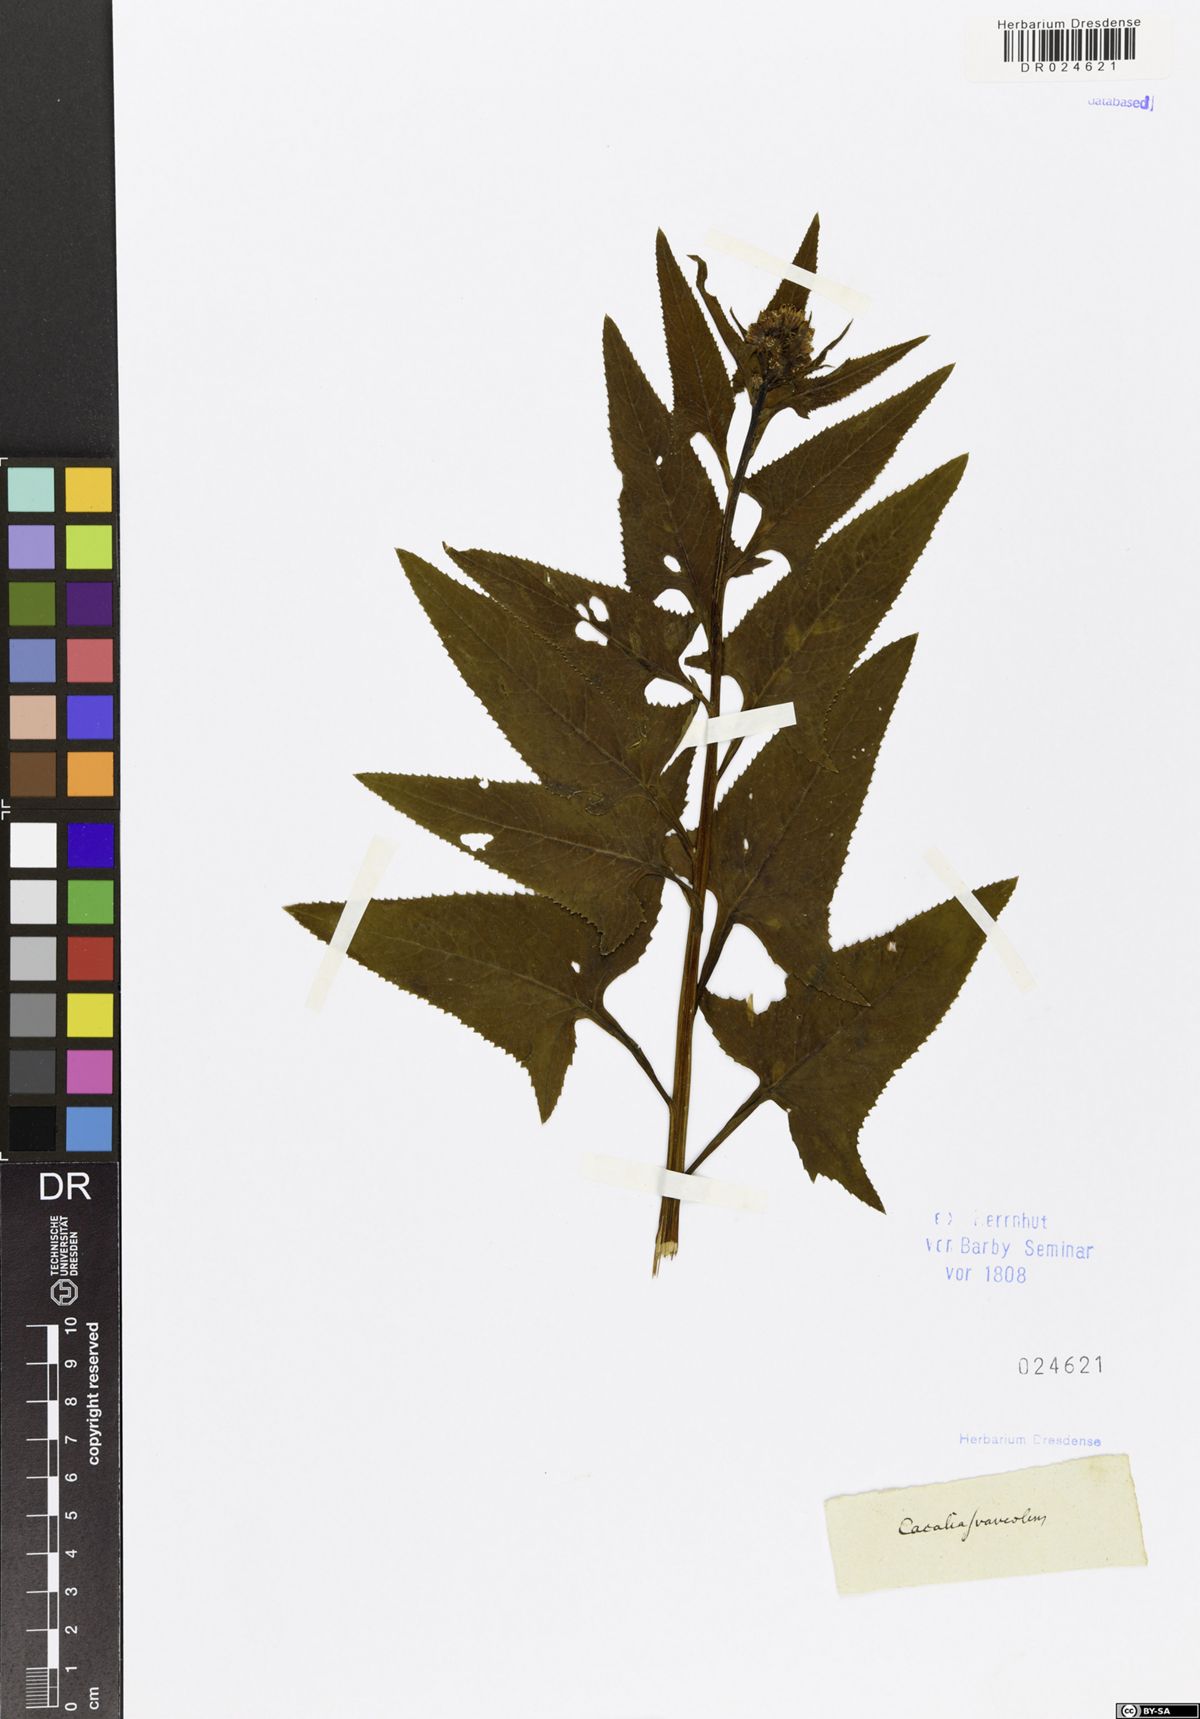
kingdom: Plantae
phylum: Tracheophyta
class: Magnoliopsida
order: Asterales
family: Asteraceae
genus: Hasteola
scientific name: Hasteola suaveolens
